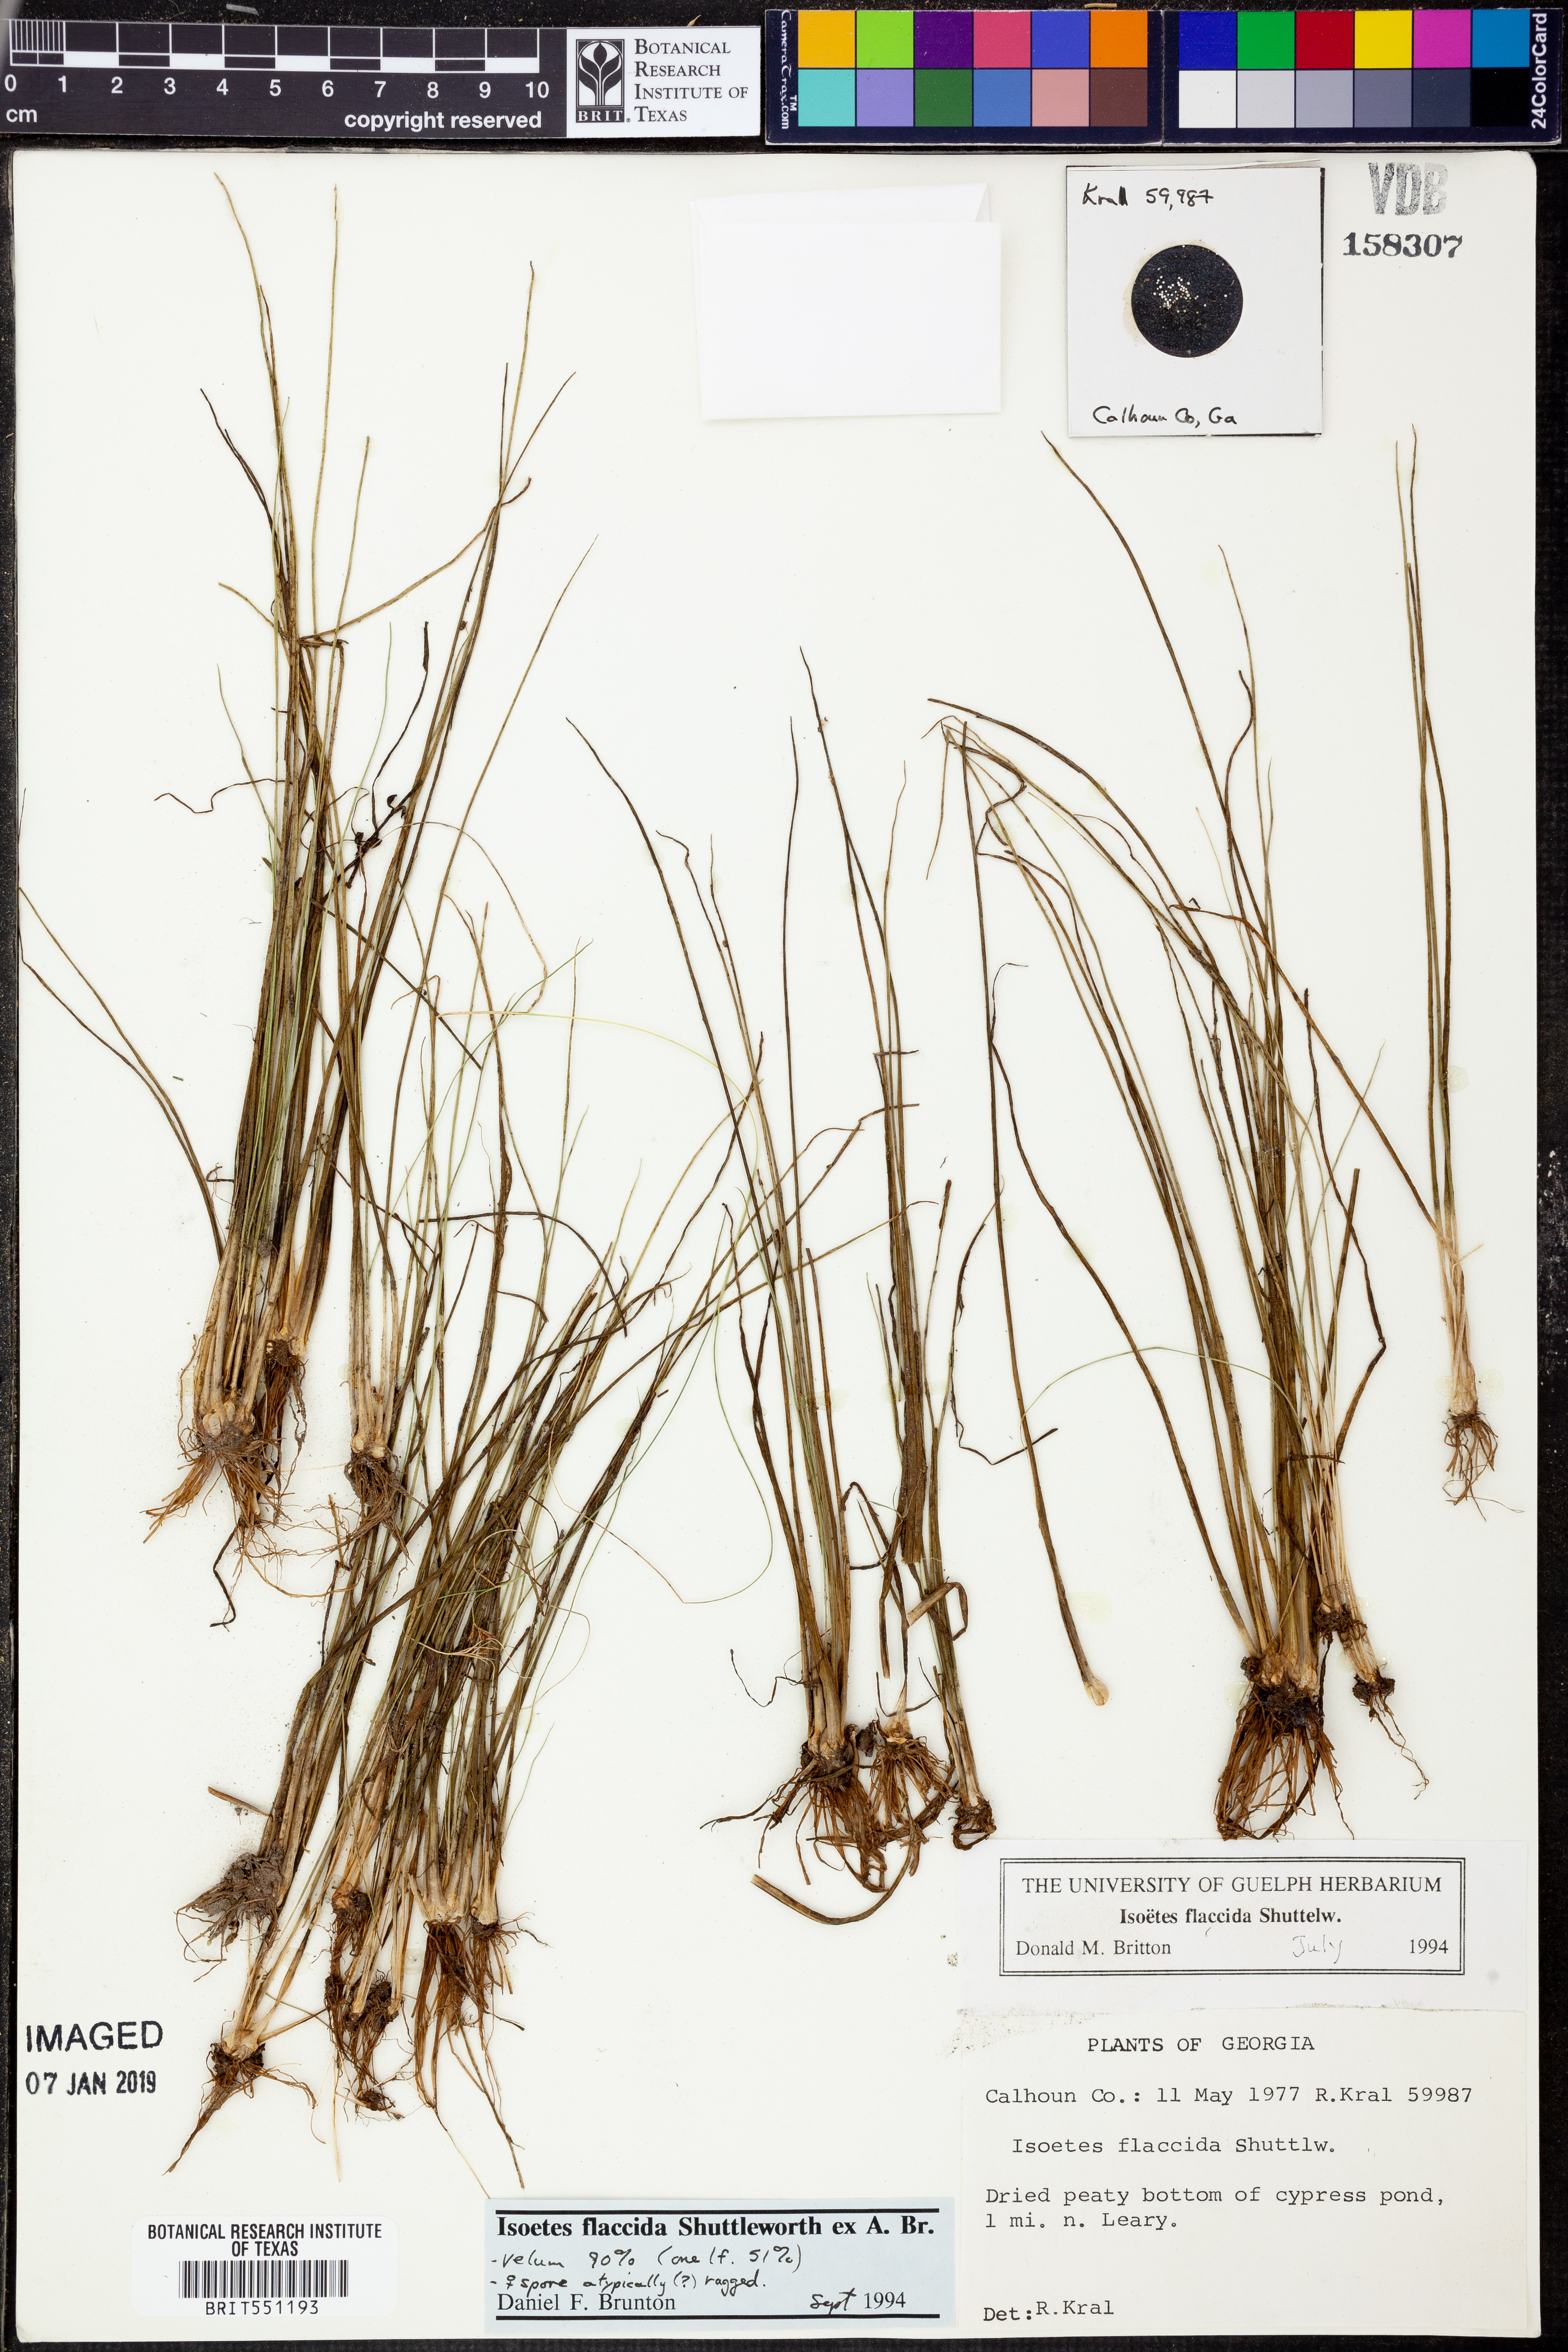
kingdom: Plantae
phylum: Tracheophyta
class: Lycopodiopsida
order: Isoetales
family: Isoetaceae
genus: Isoetes
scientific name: Isoetes flaccida
